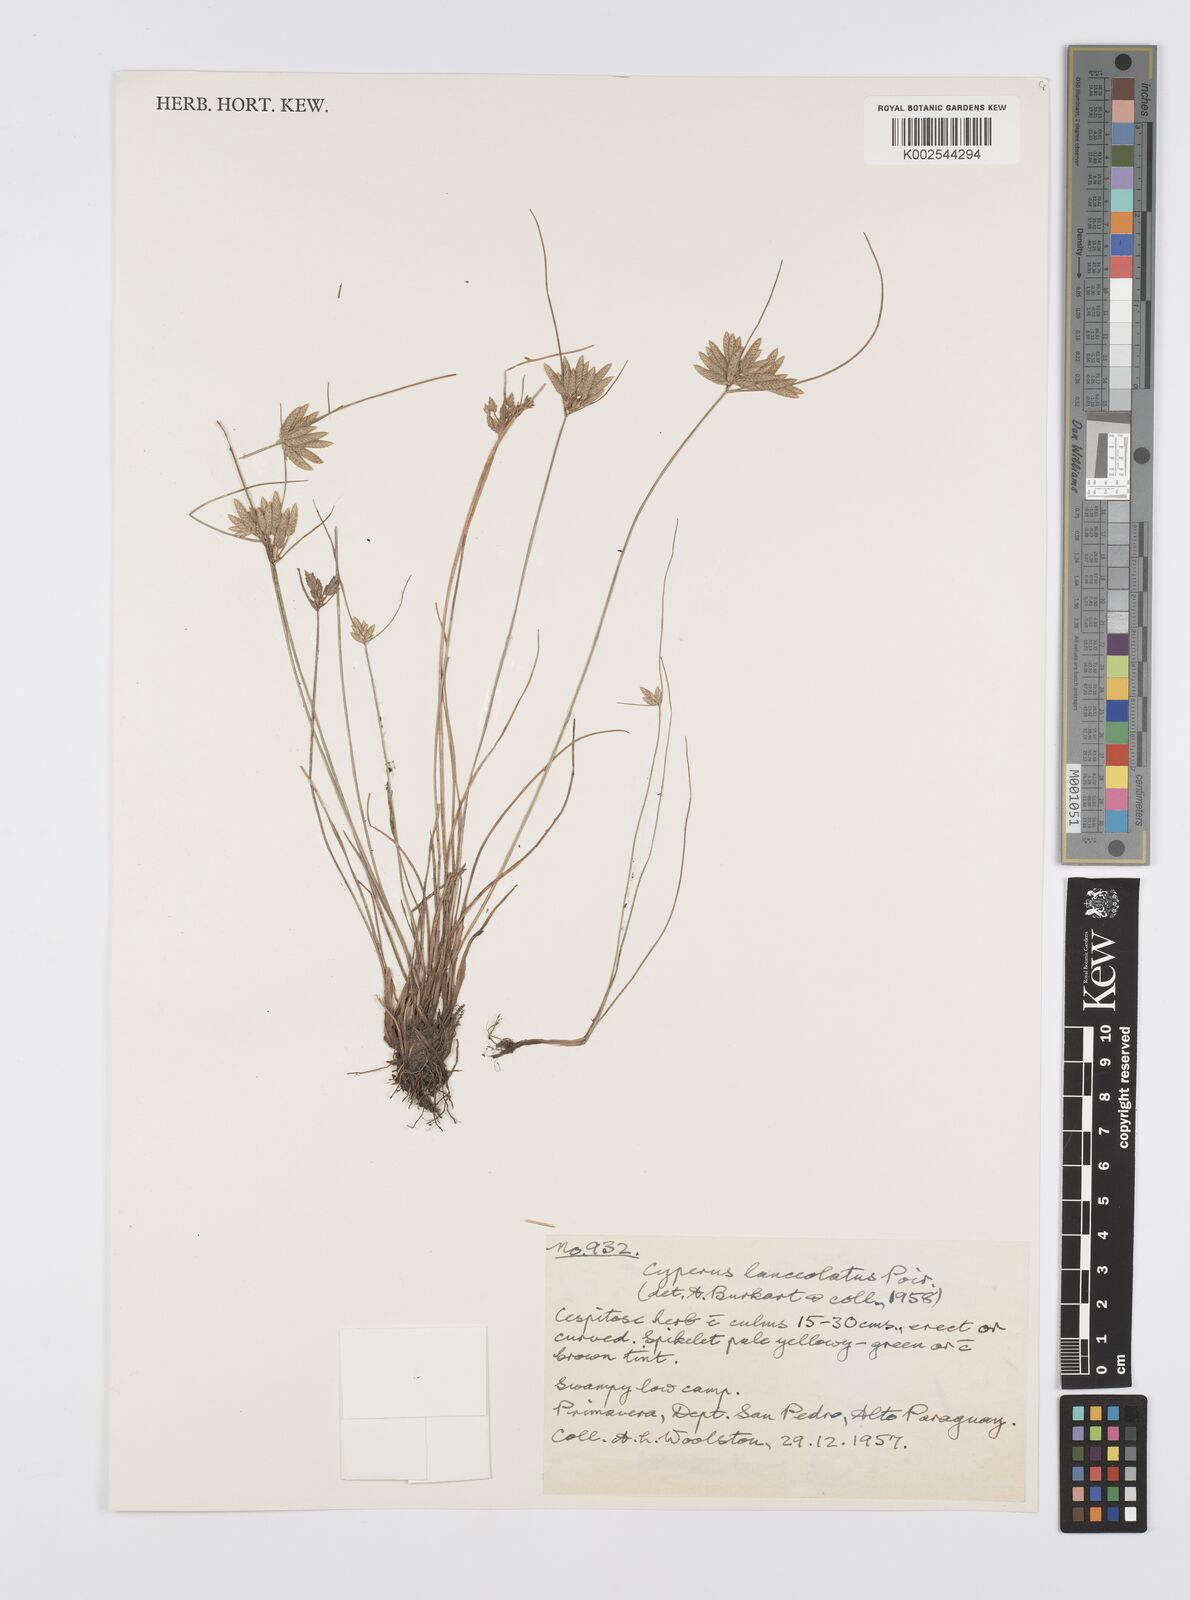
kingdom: Plantae
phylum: Tracheophyta
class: Liliopsida
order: Poales
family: Cyperaceae
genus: Cyperus
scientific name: Cyperus
